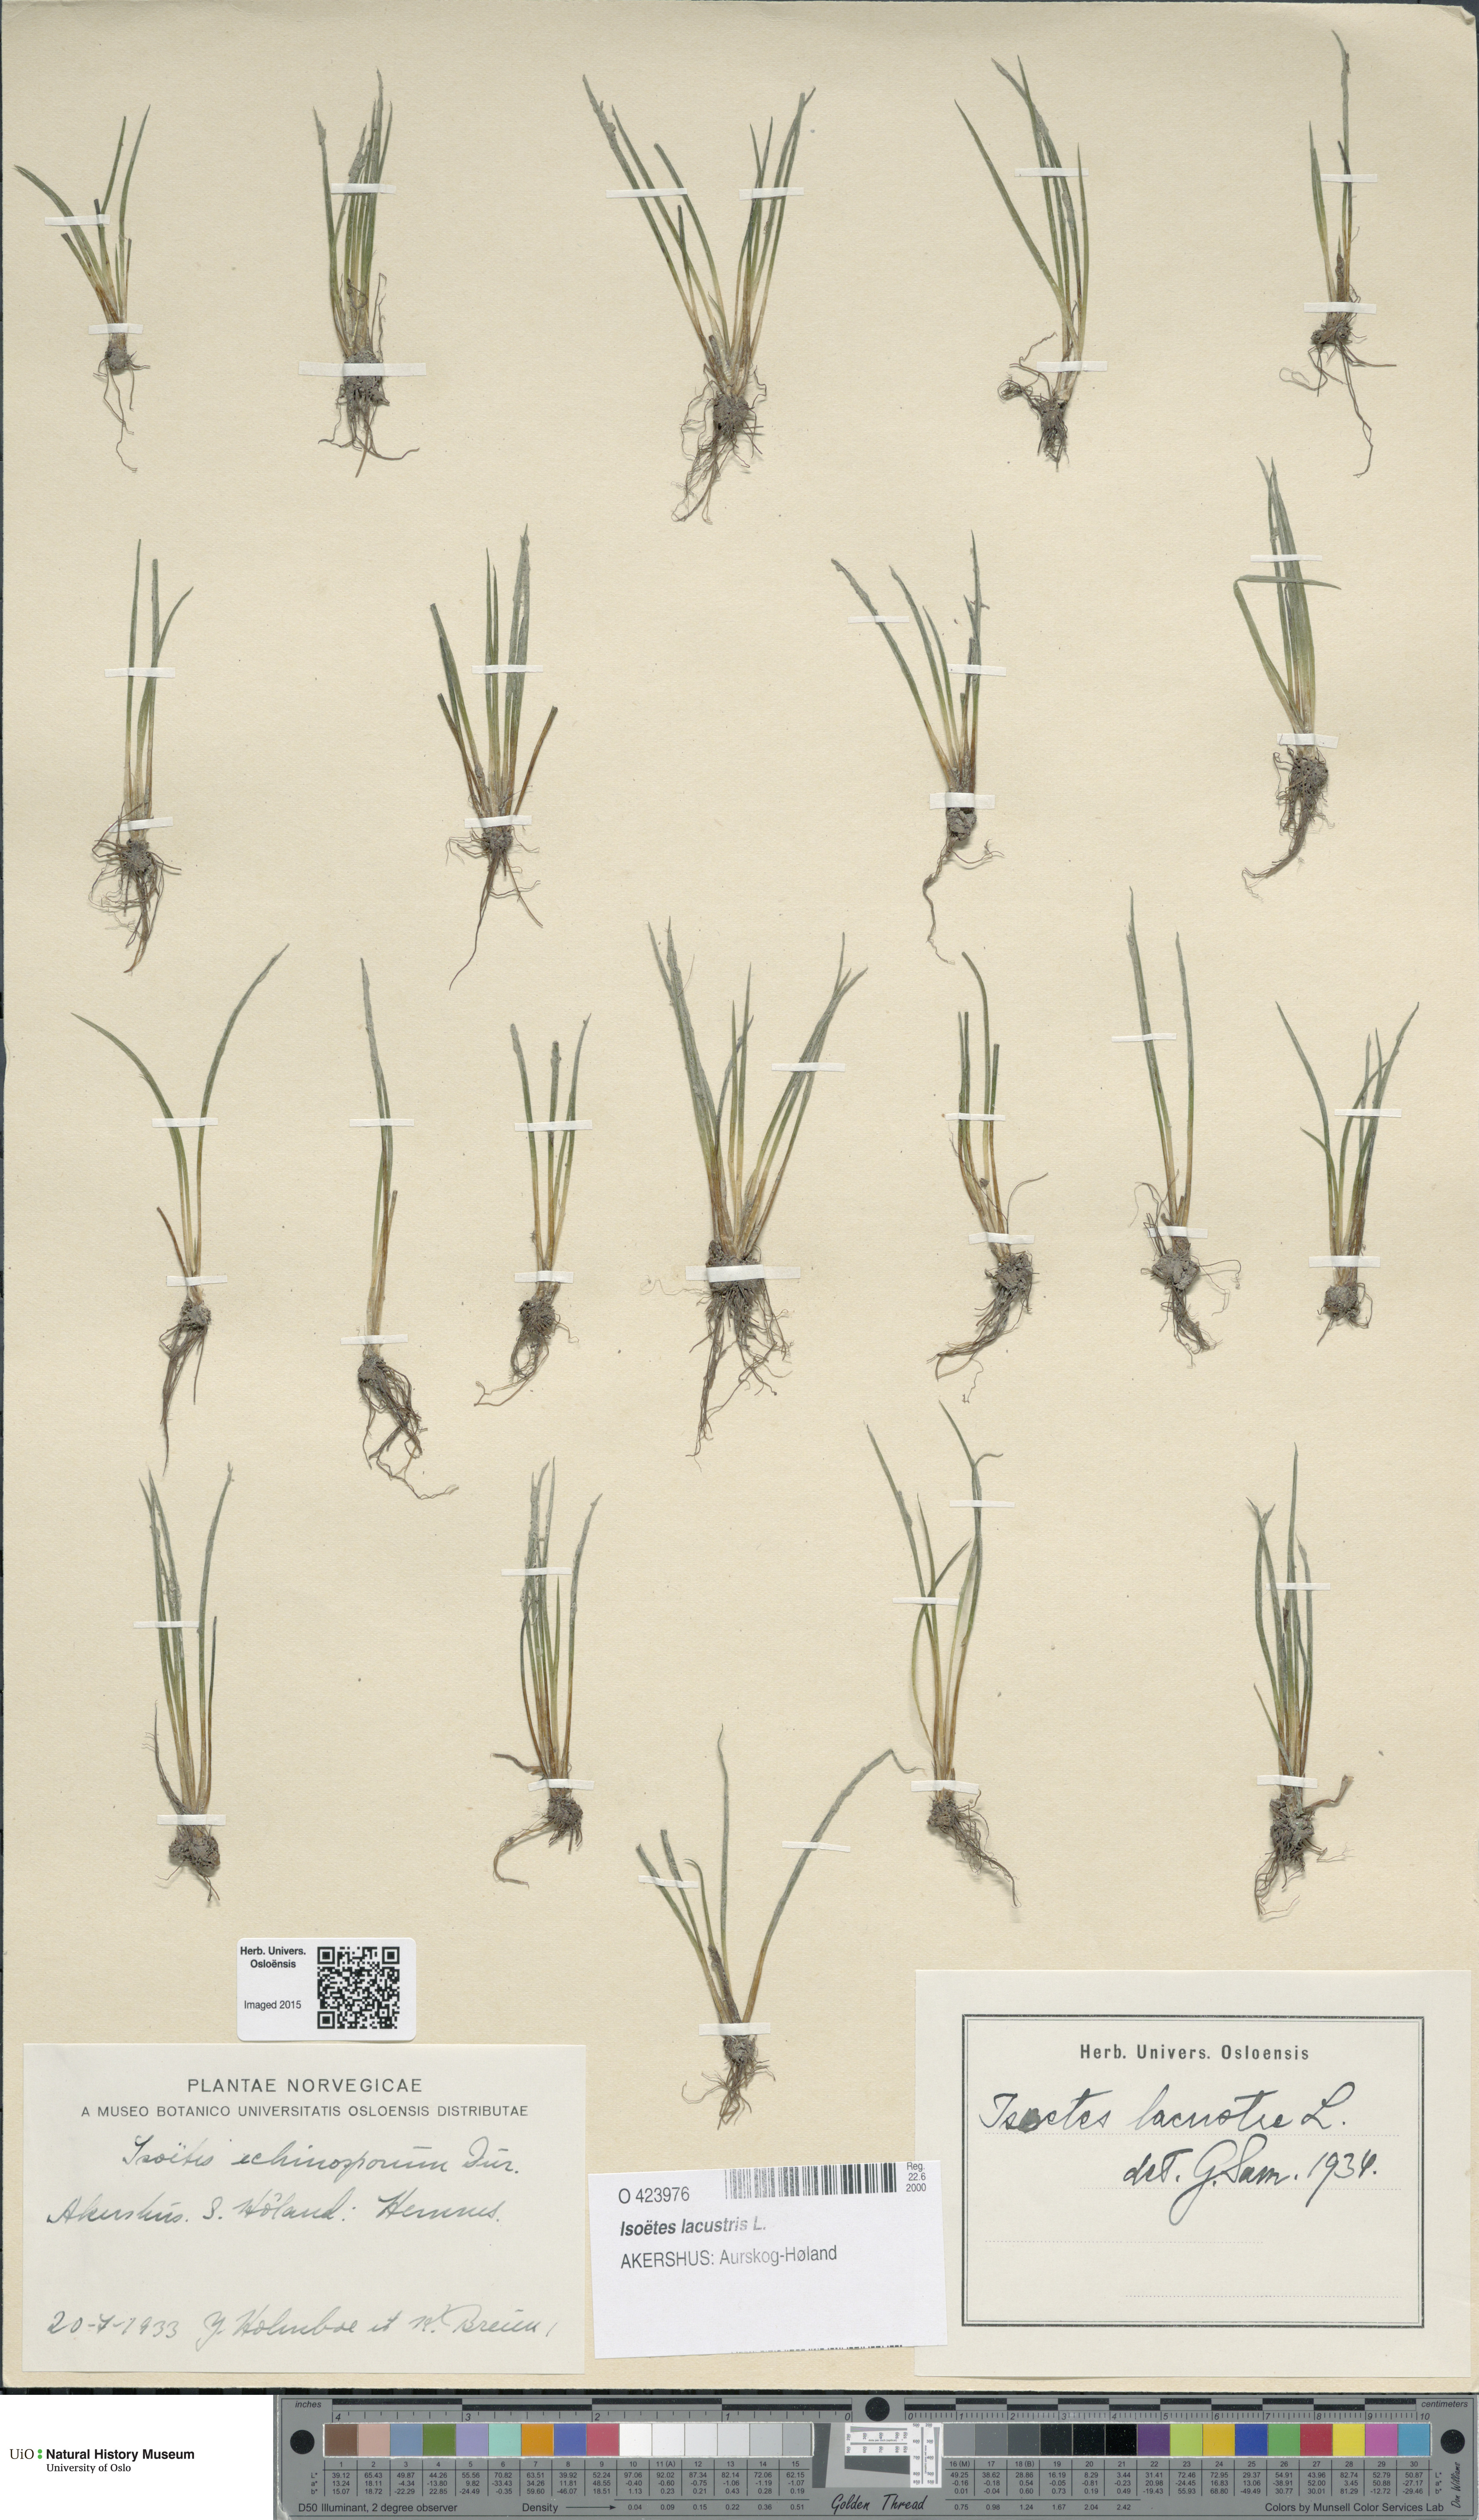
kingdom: Plantae
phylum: Tracheophyta
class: Lycopodiopsida
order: Isoetales
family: Isoetaceae
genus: Isoetes
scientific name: Isoetes lacustris
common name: Common quillwort
